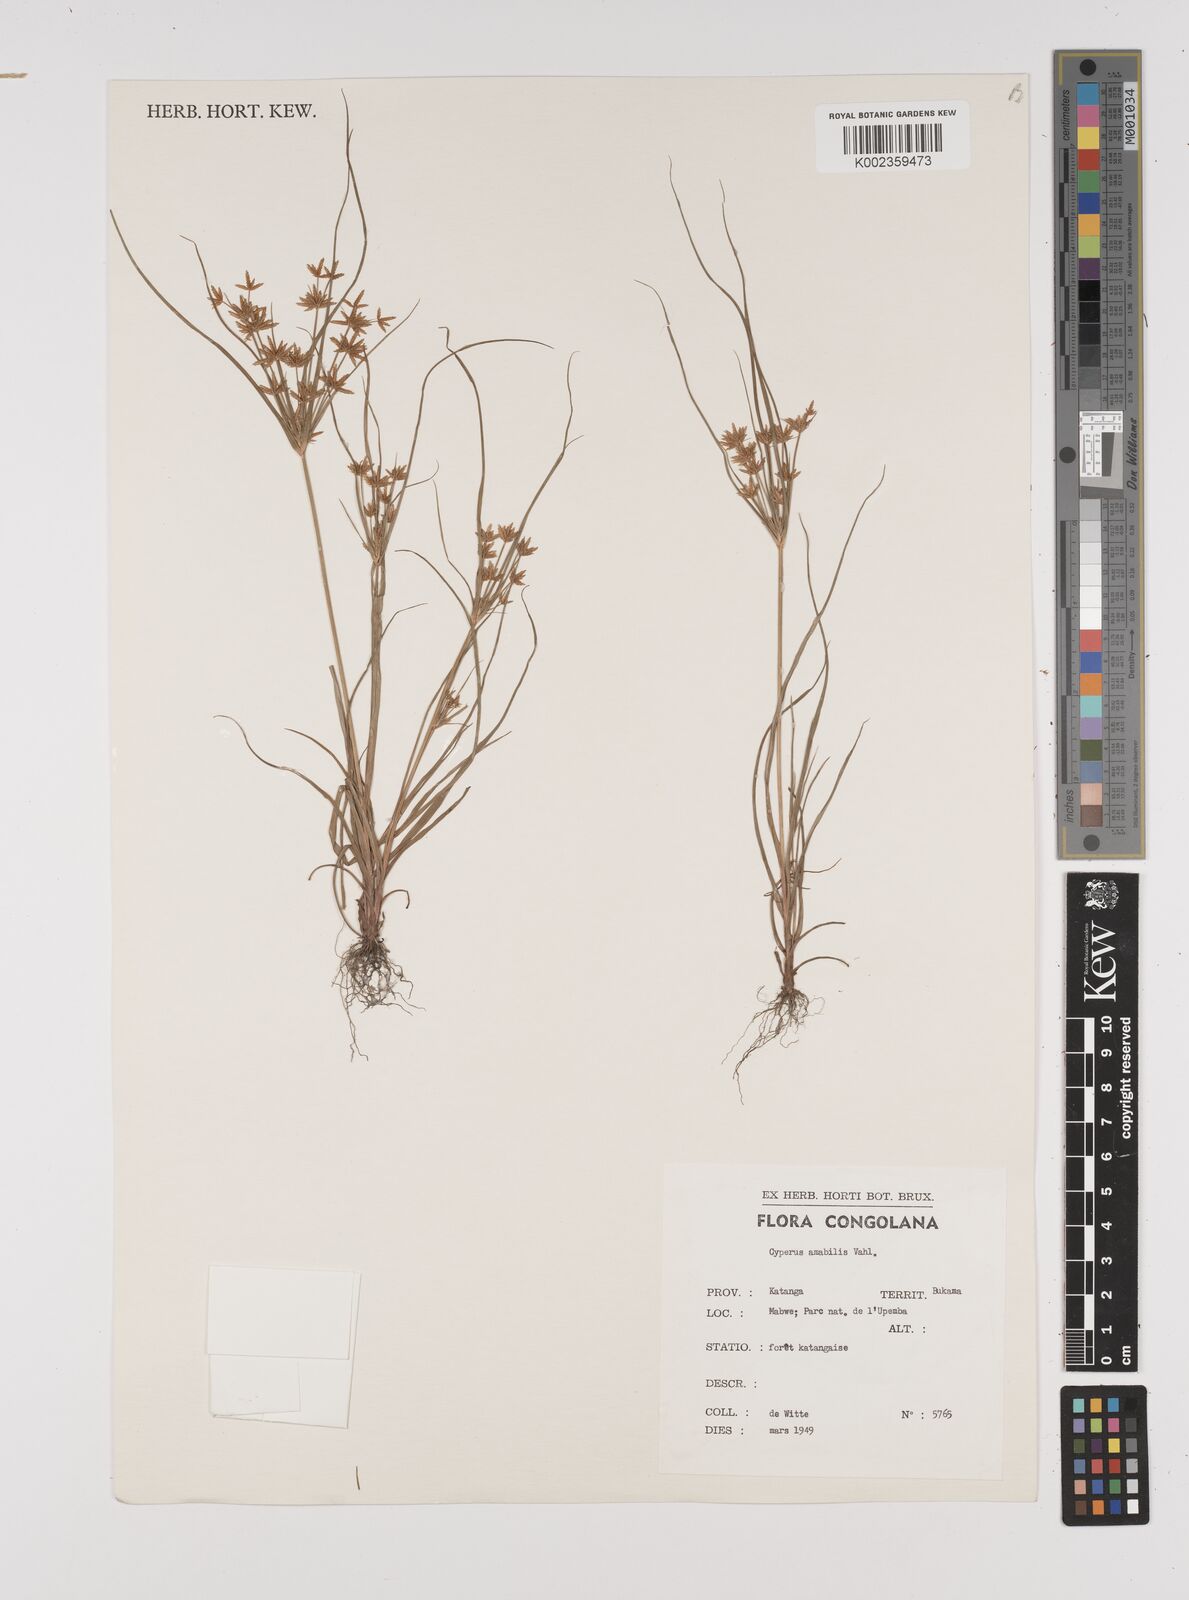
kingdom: Plantae
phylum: Tracheophyta
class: Liliopsida
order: Poales
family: Cyperaceae
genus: Cyperus
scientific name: Cyperus amabilis
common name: Foothill flat sedge
